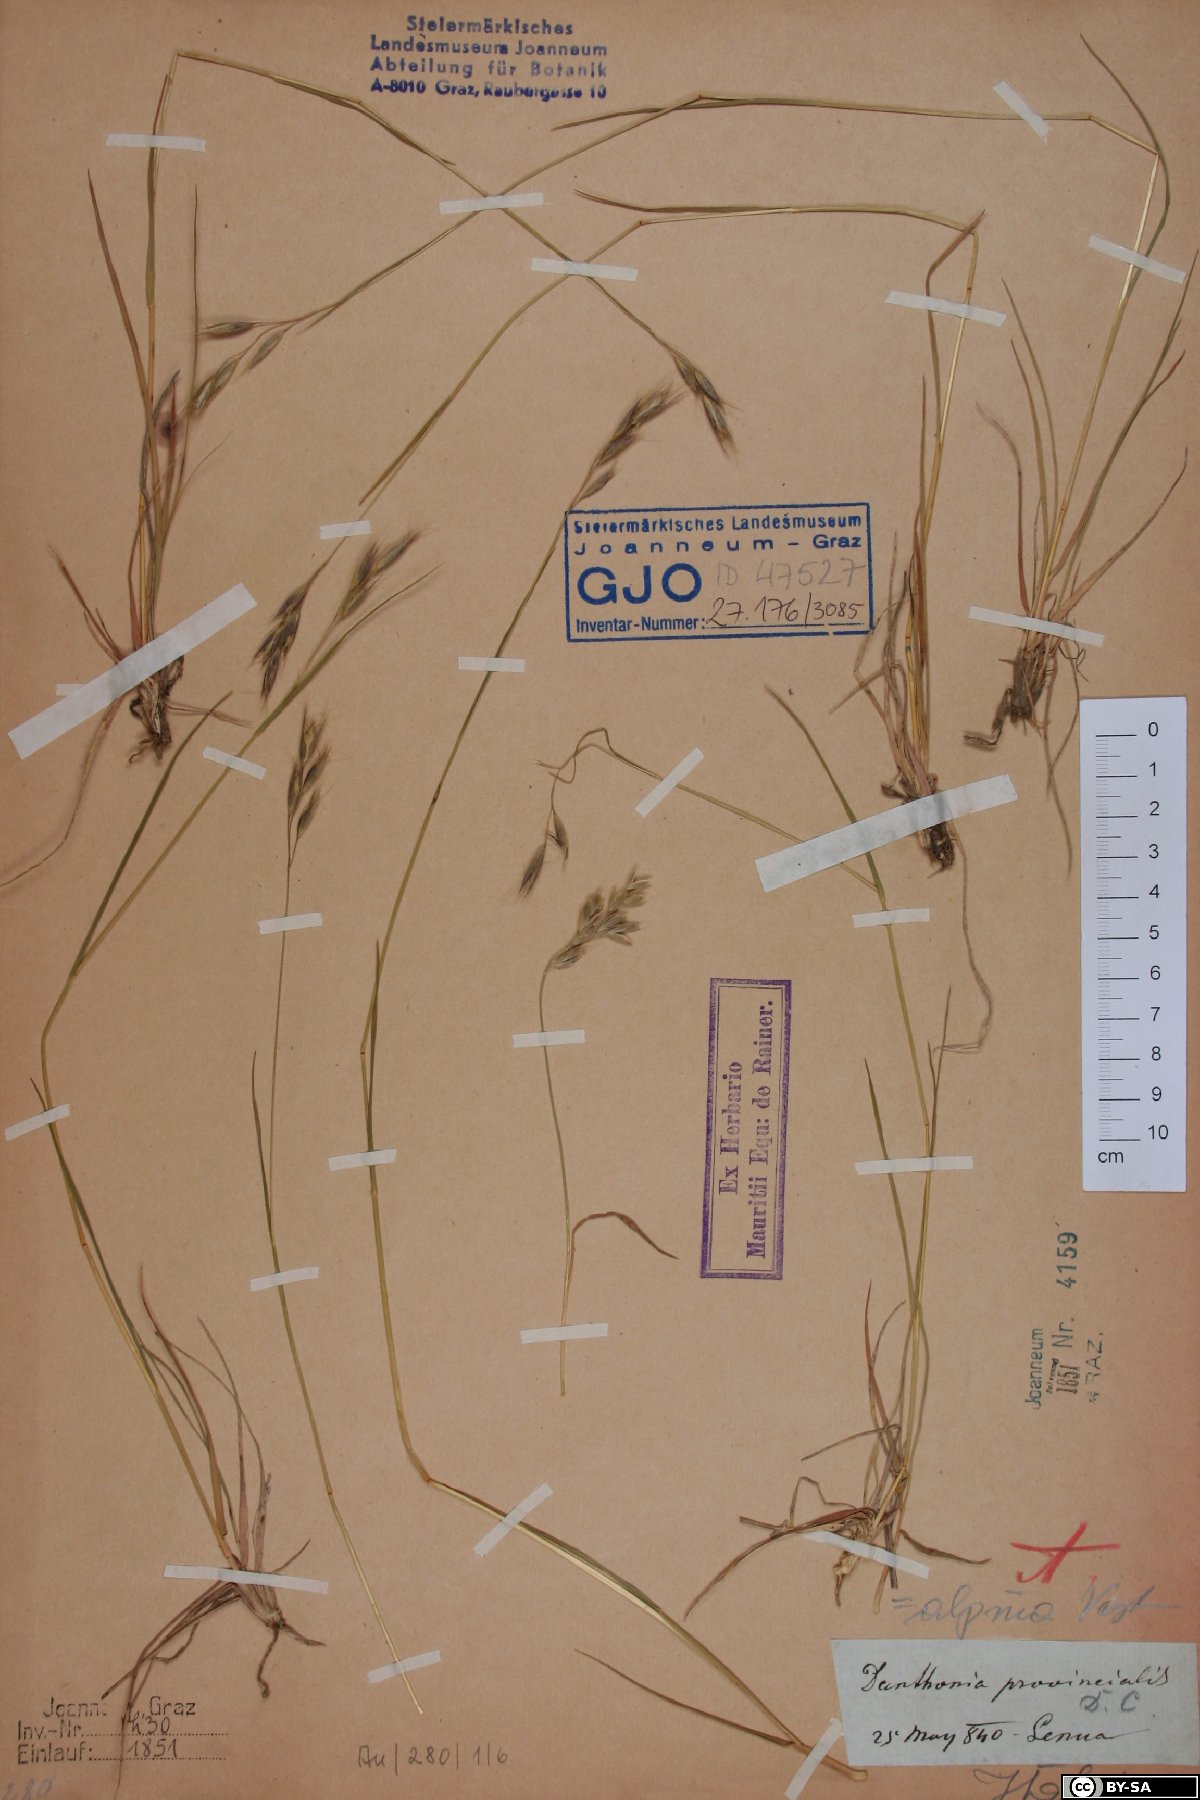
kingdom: Plantae
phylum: Tracheophyta
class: Liliopsida
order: Poales
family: Poaceae
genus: Danthonia
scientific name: Danthonia alpina
